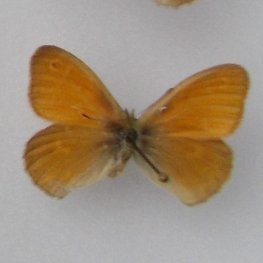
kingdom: Animalia
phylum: Arthropoda
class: Insecta
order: Lepidoptera
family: Nymphalidae
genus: Coenonympha
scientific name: Coenonympha tullia
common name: Large Heath
